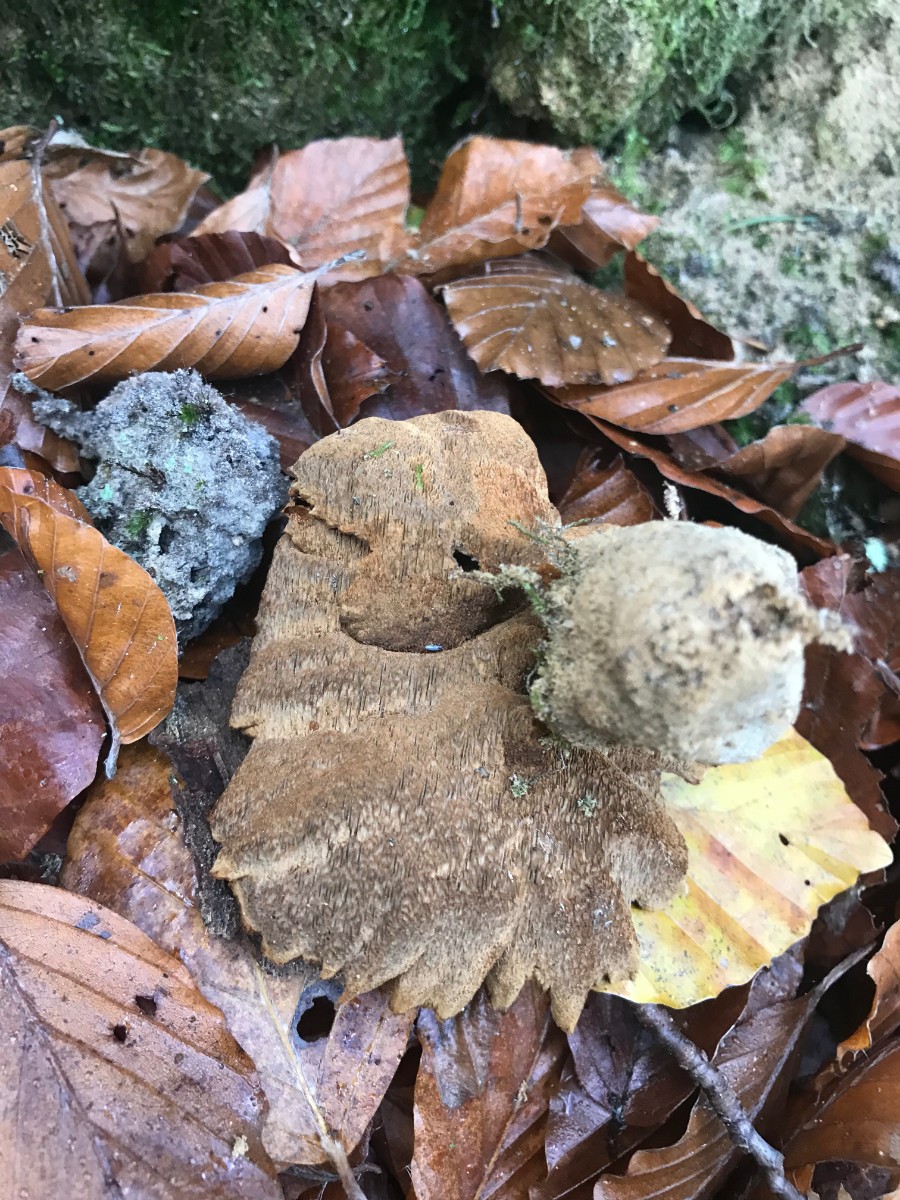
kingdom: Fungi
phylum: Basidiomycota
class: Agaricomycetes
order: Hymenochaetales
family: Hymenochaetaceae
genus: Coltricia
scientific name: Coltricia perennis
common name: almindelig sandporesvamp
